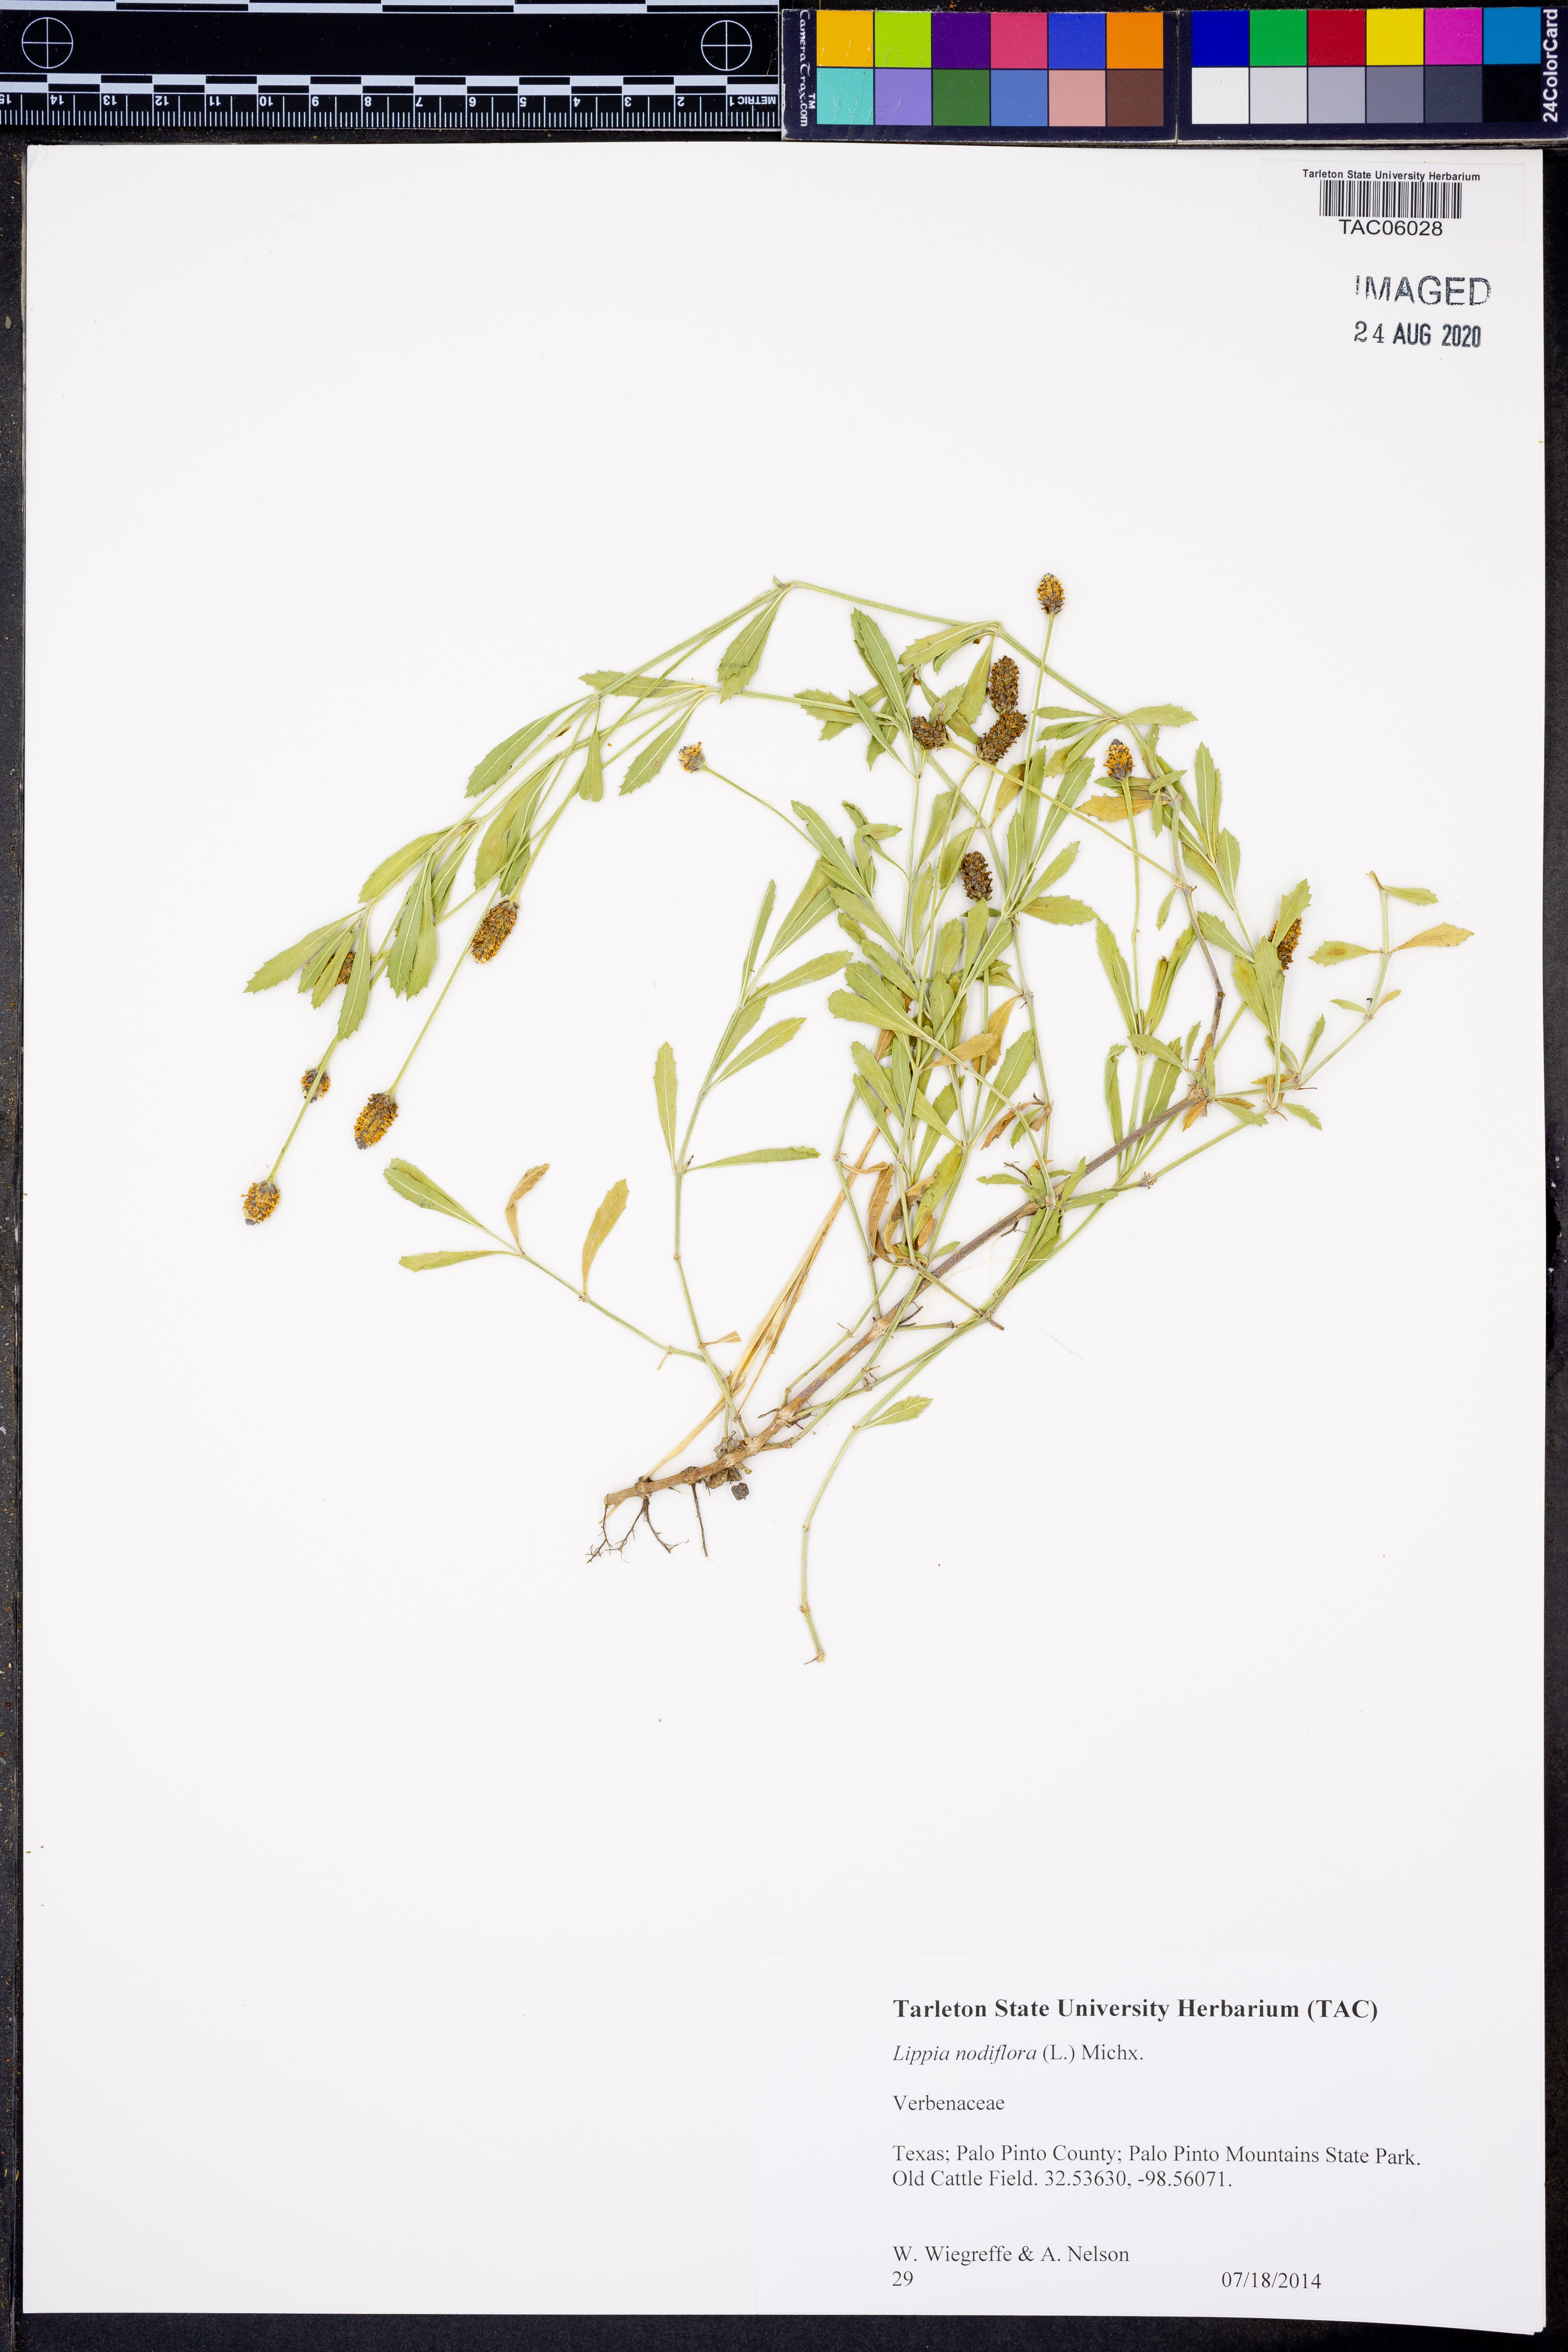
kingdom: Plantae
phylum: Tracheophyta
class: Magnoliopsida
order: Lamiales
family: Verbenaceae
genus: Phyla
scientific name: Phyla nodiflora
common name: Frogfruit
